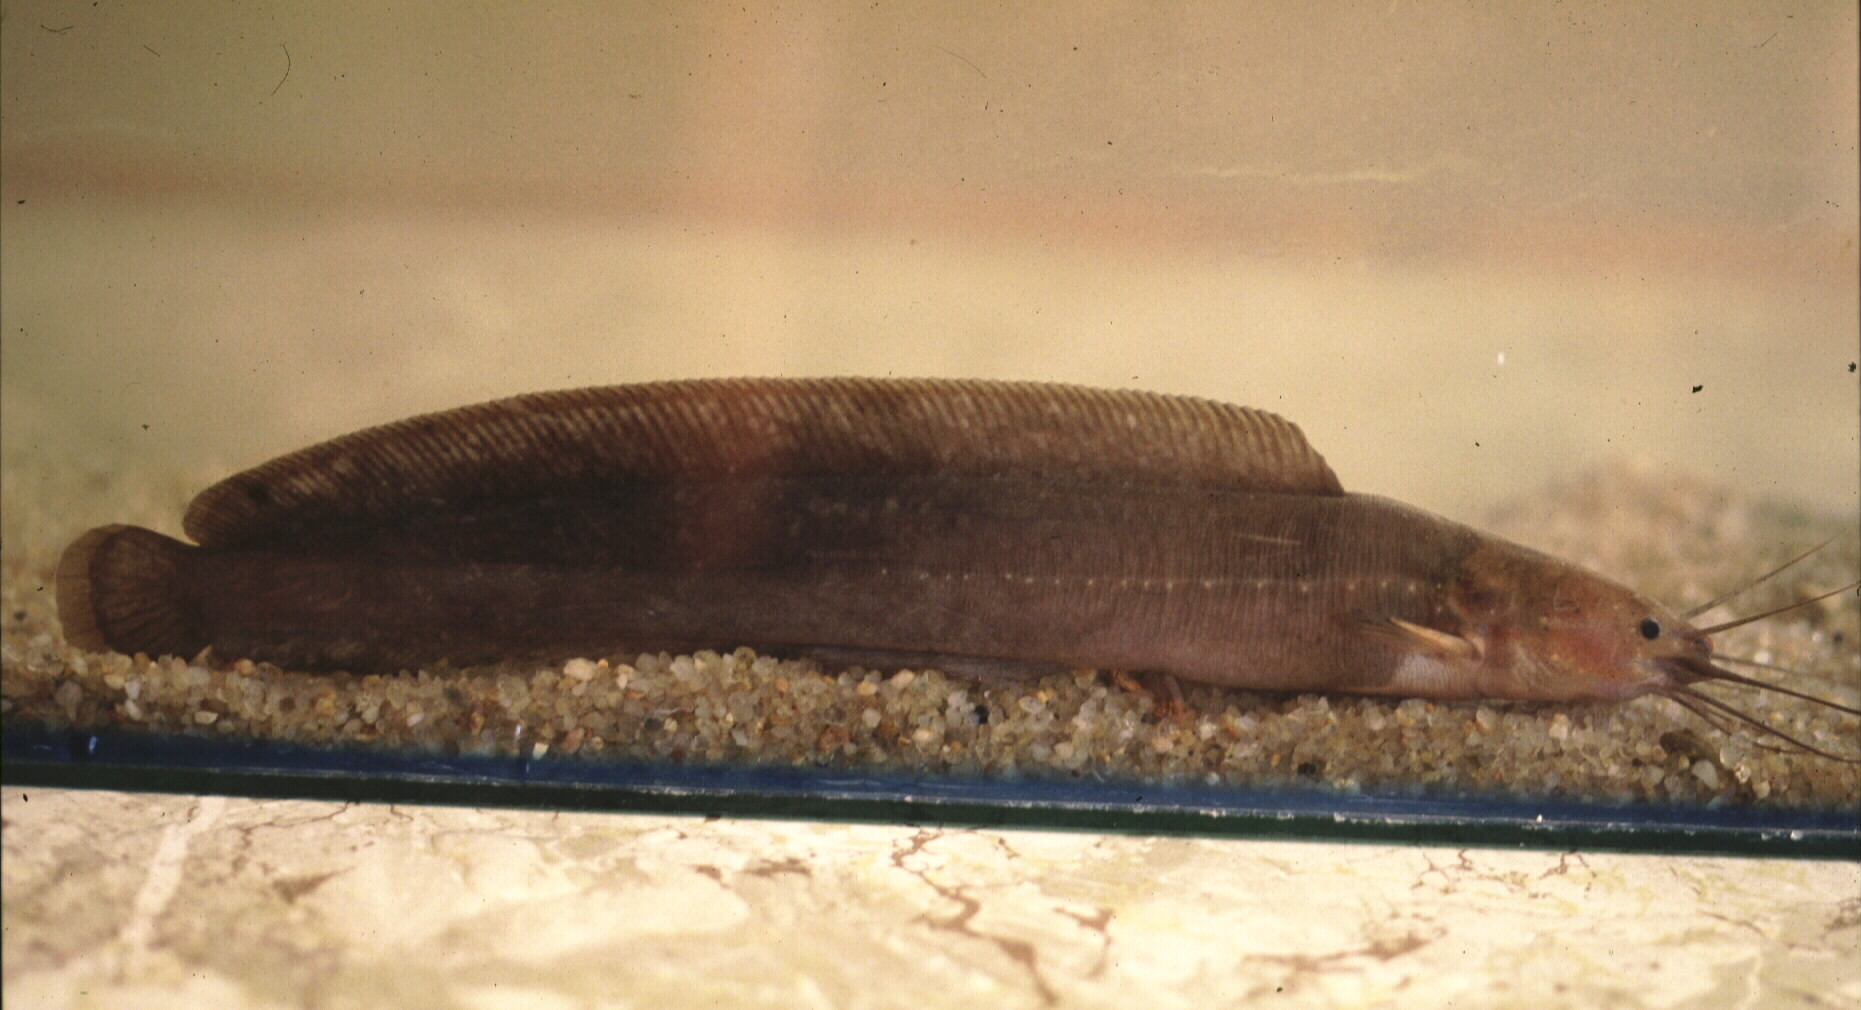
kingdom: Animalia
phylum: Chordata
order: Siluriformes
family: Clariidae
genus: Clarias
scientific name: Clarias theodorae
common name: Snake catfish
